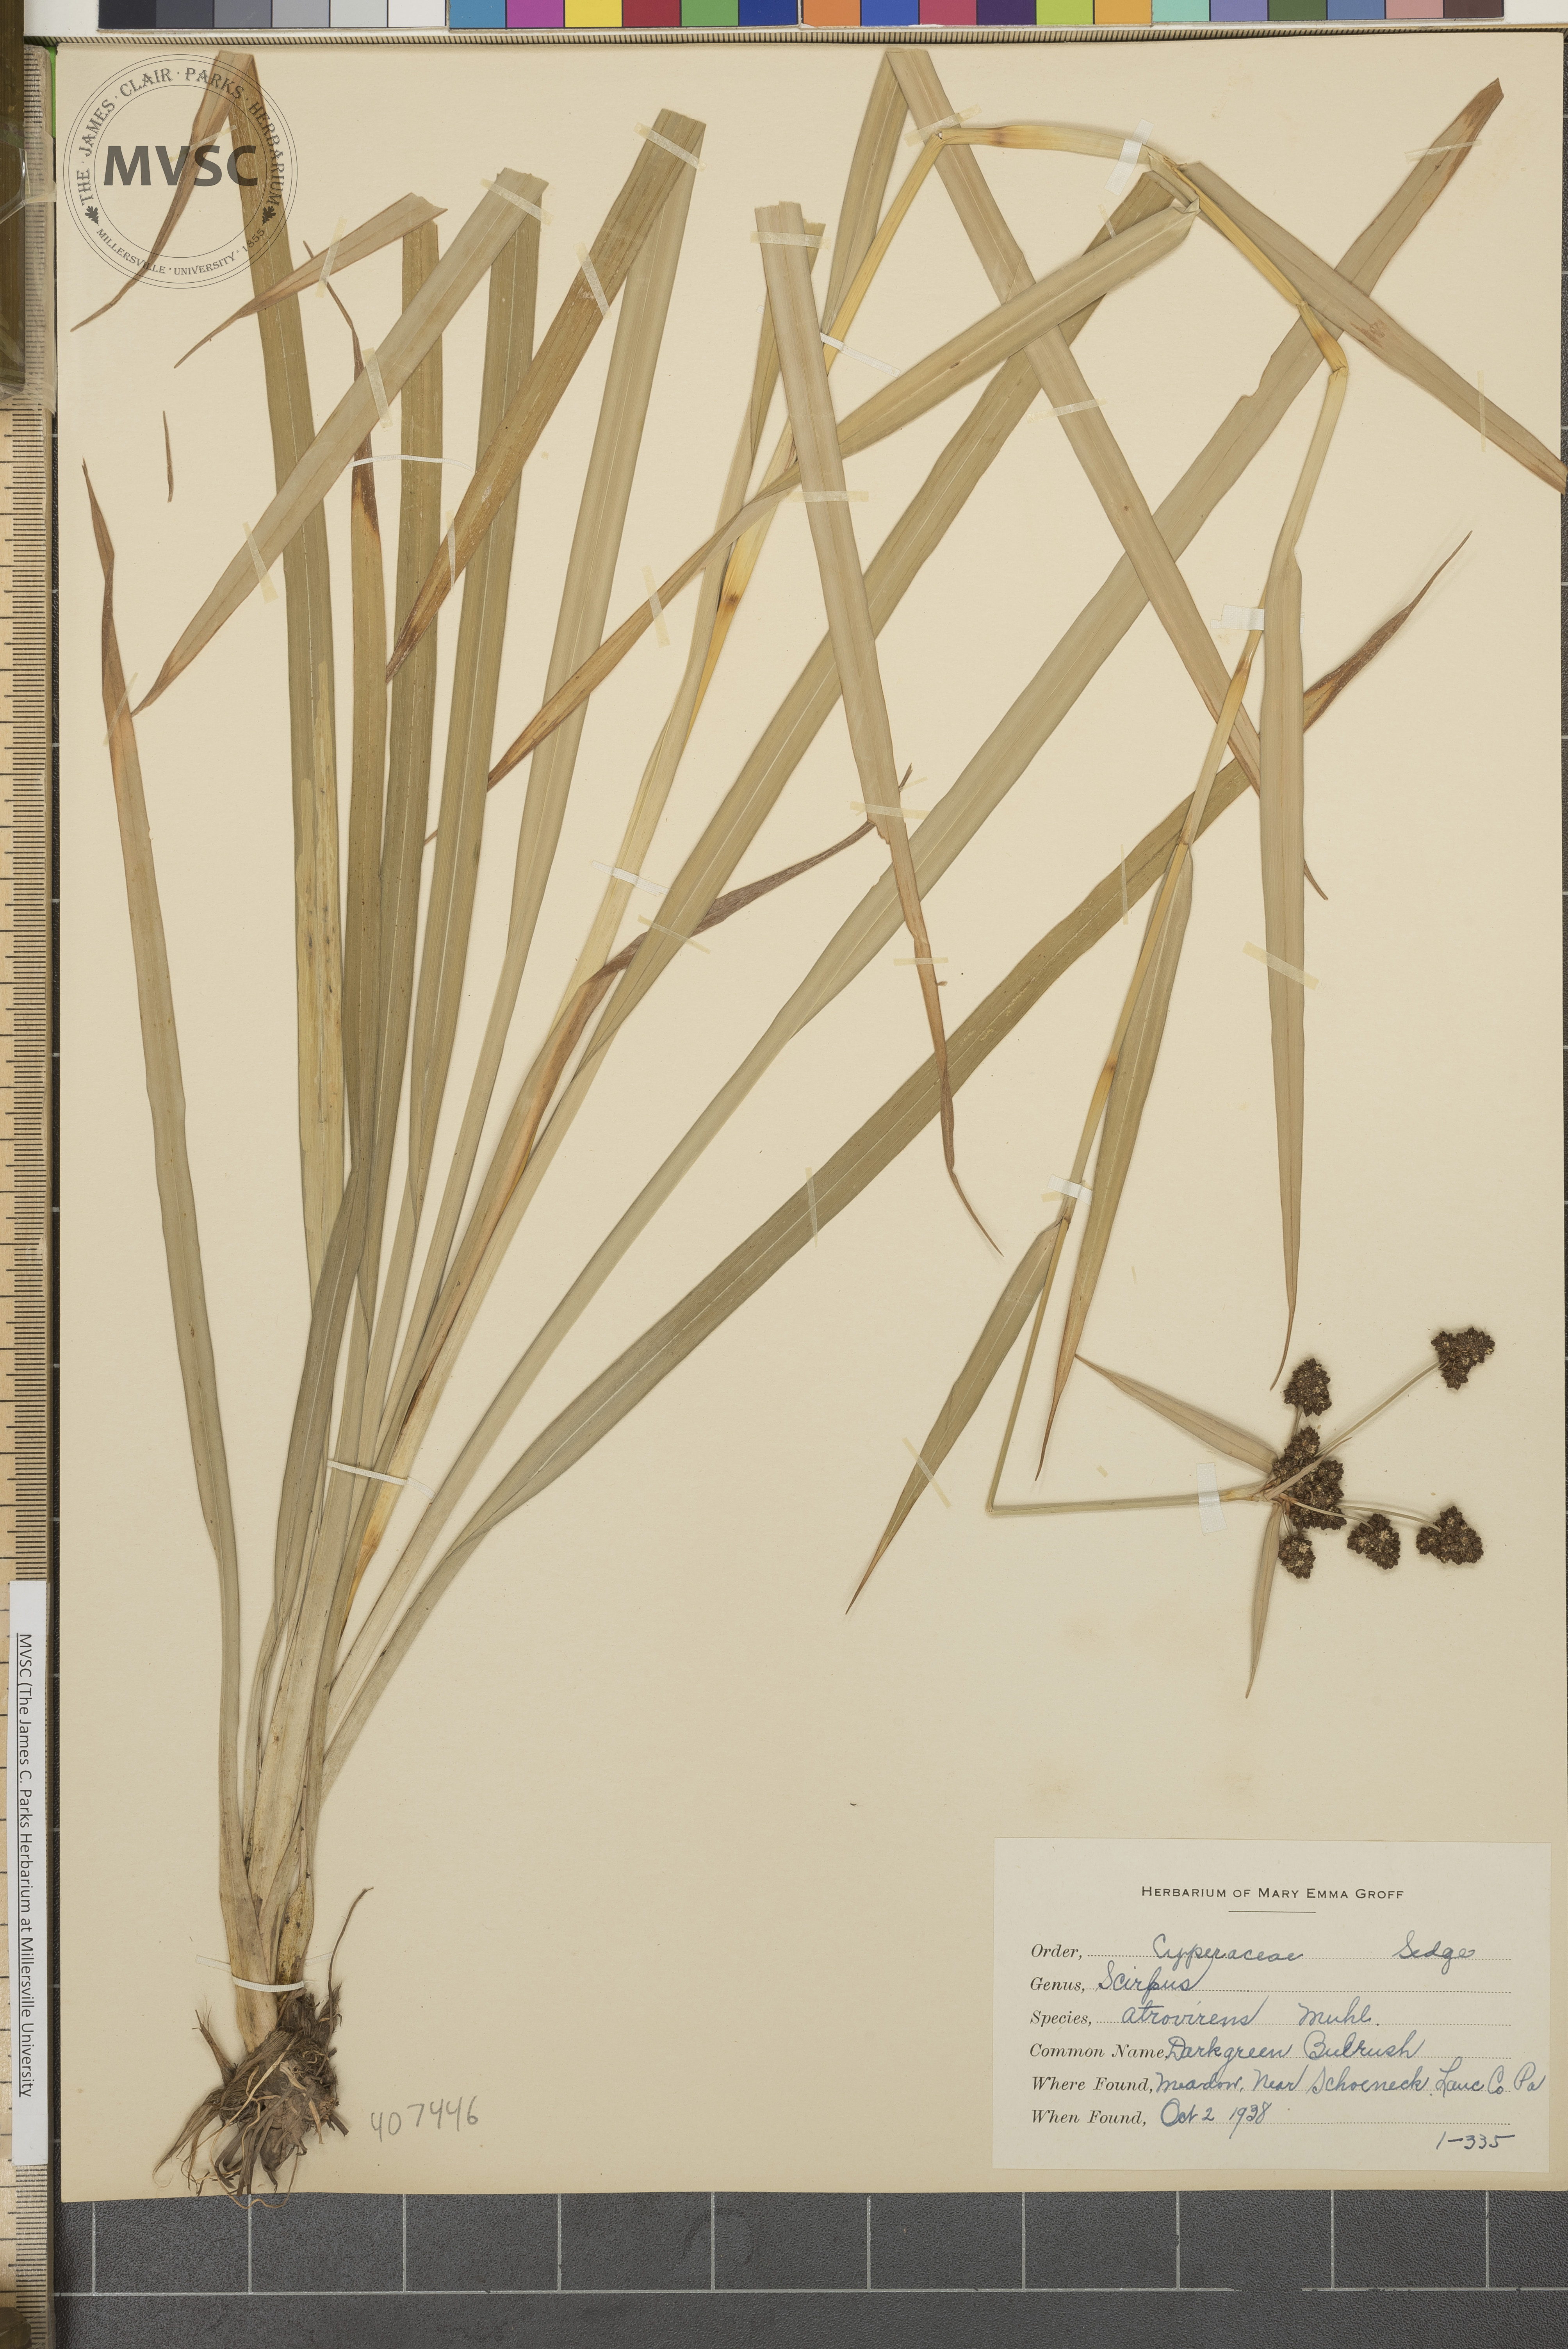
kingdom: Plantae
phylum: Tracheophyta
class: Liliopsida
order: Poales
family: Cyperaceae
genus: Scirpus
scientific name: Scirpus atrovirens
